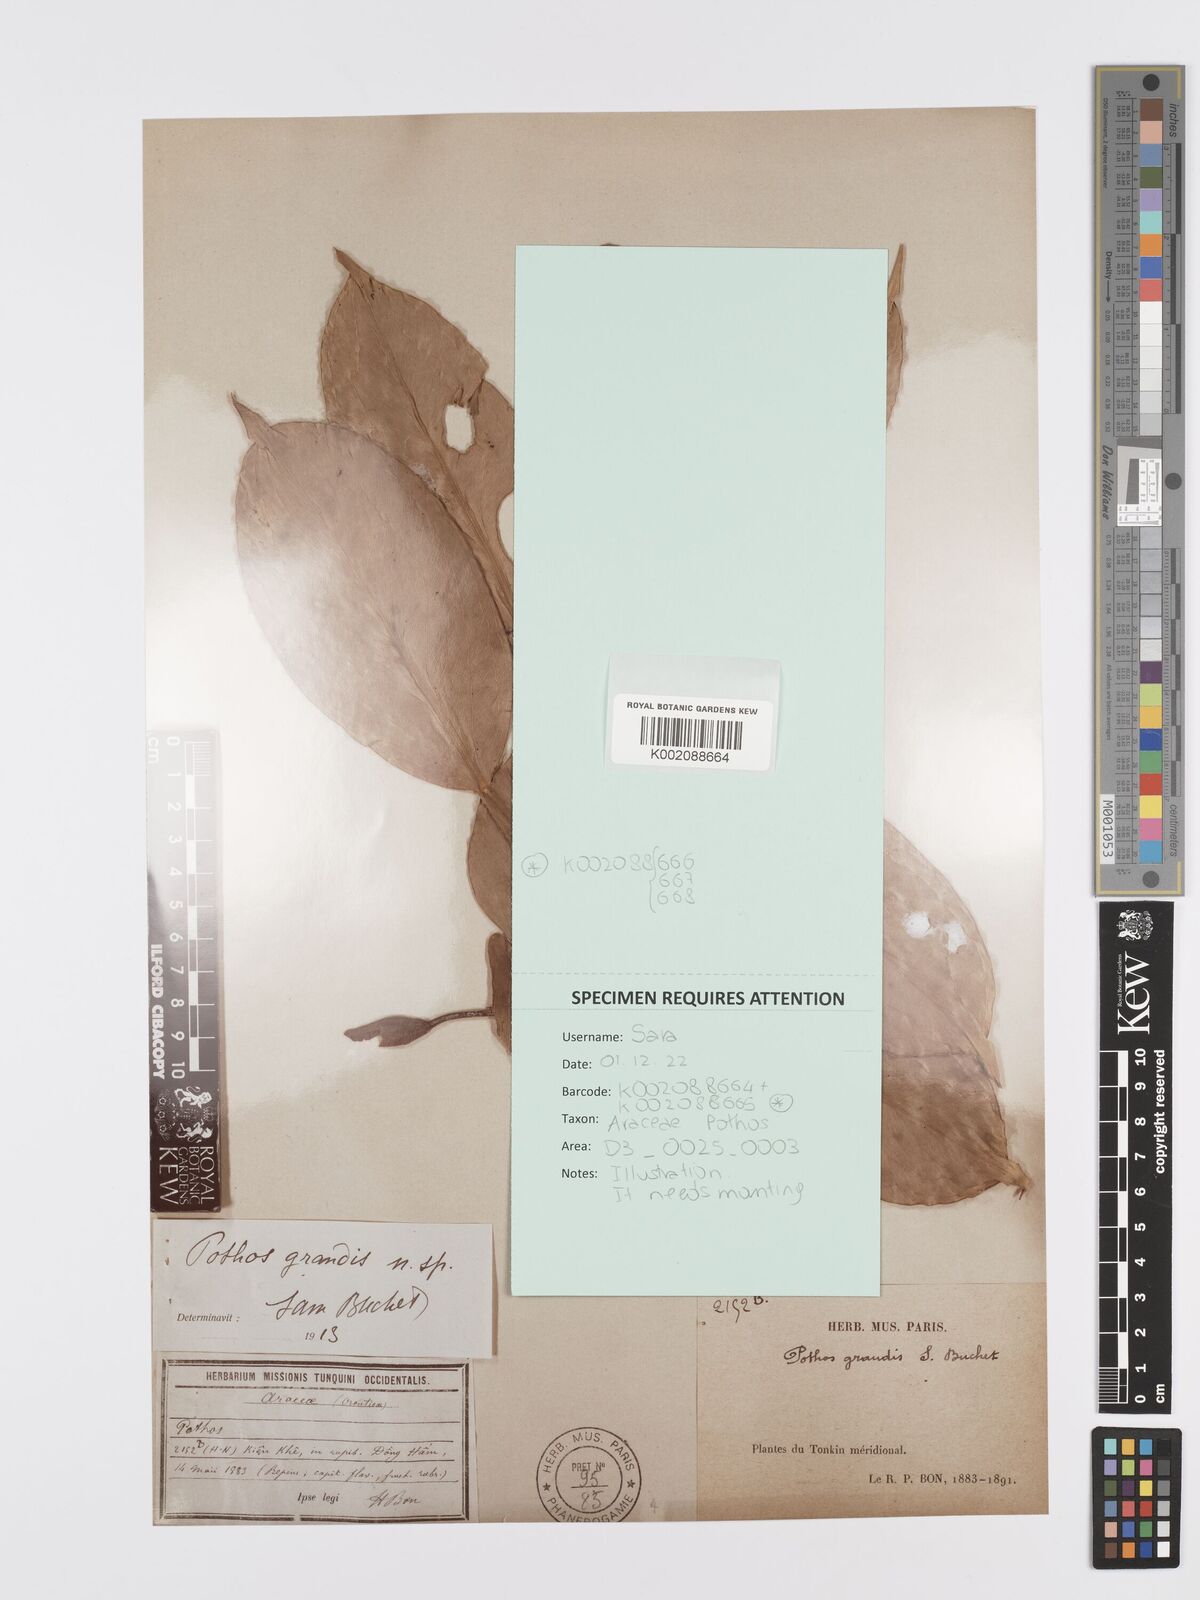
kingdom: Plantae
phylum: Tracheophyta
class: Liliopsida
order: Alismatales
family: Araceae
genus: Pothos
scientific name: Pothos grandis
